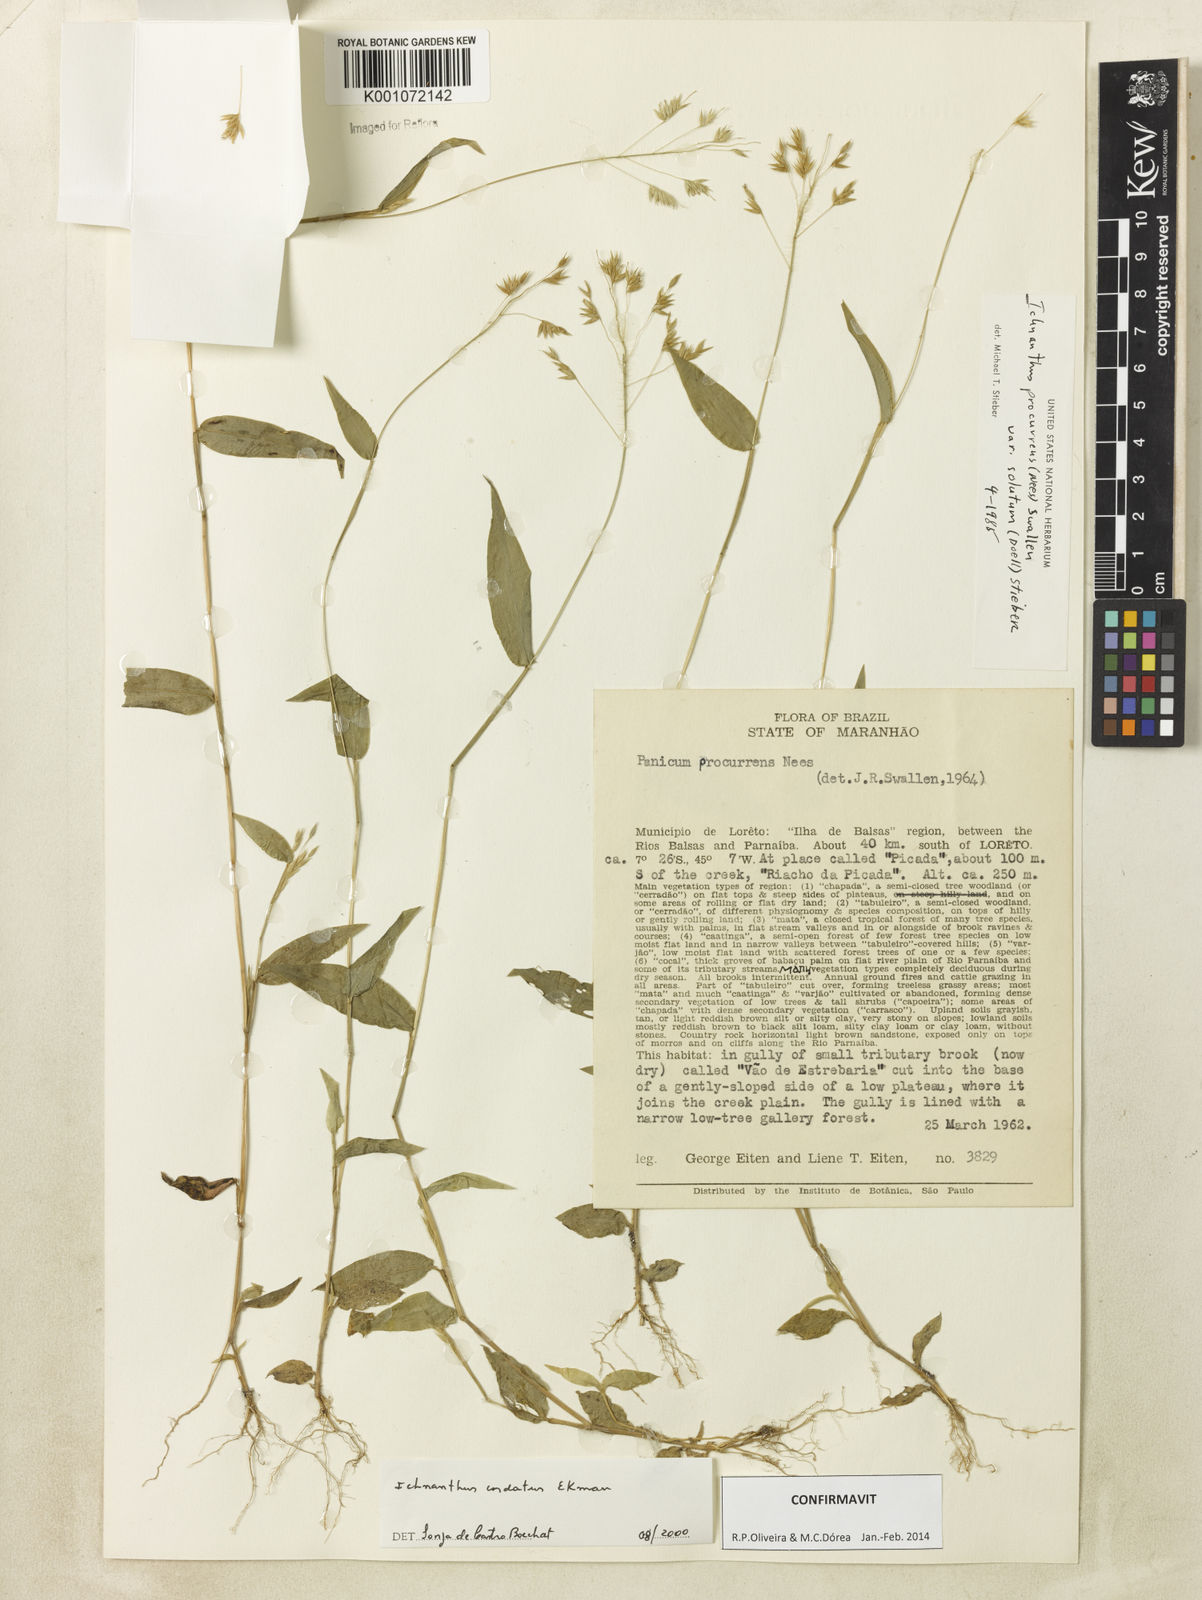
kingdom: Plantae
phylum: Tracheophyta
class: Liliopsida
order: Poales
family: Poaceae
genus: Oedochloa
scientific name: Oedochloa mayarensis
